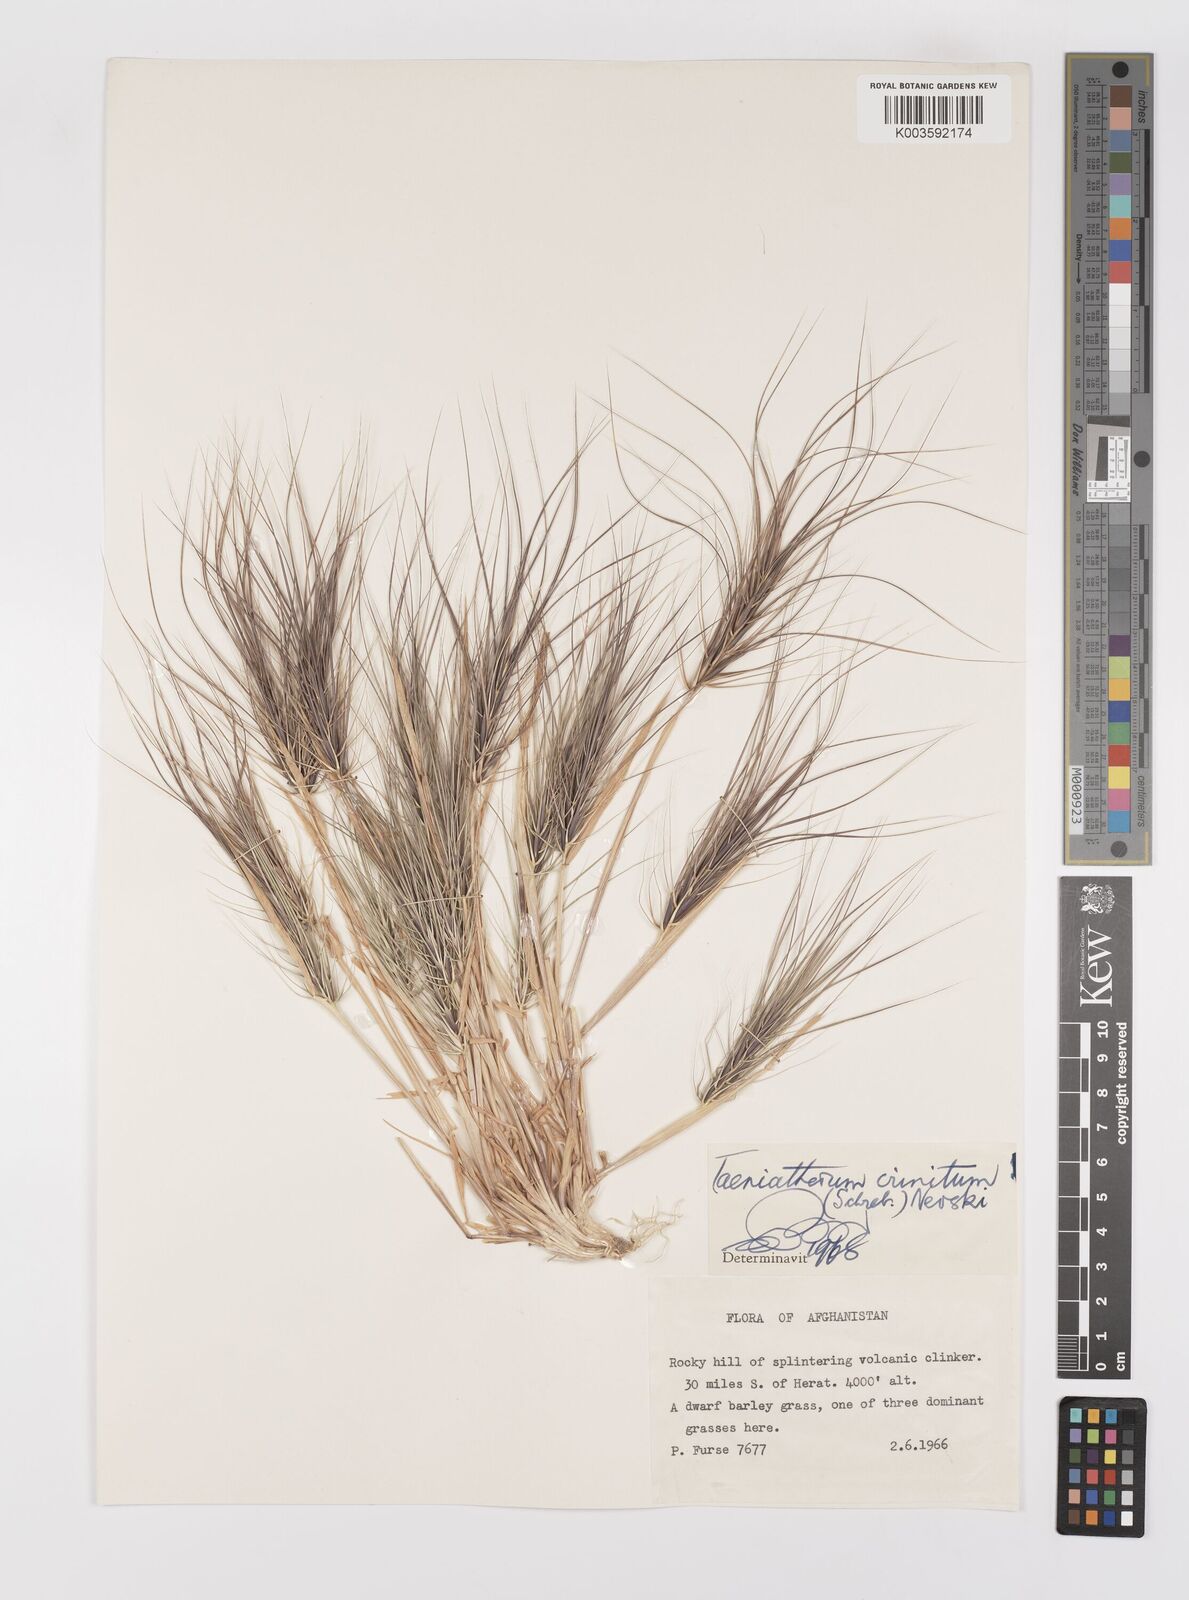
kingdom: Plantae
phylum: Tracheophyta
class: Liliopsida
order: Poales
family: Poaceae
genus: Taeniatherum
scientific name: Taeniatherum caput-medusae
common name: Medusahead
